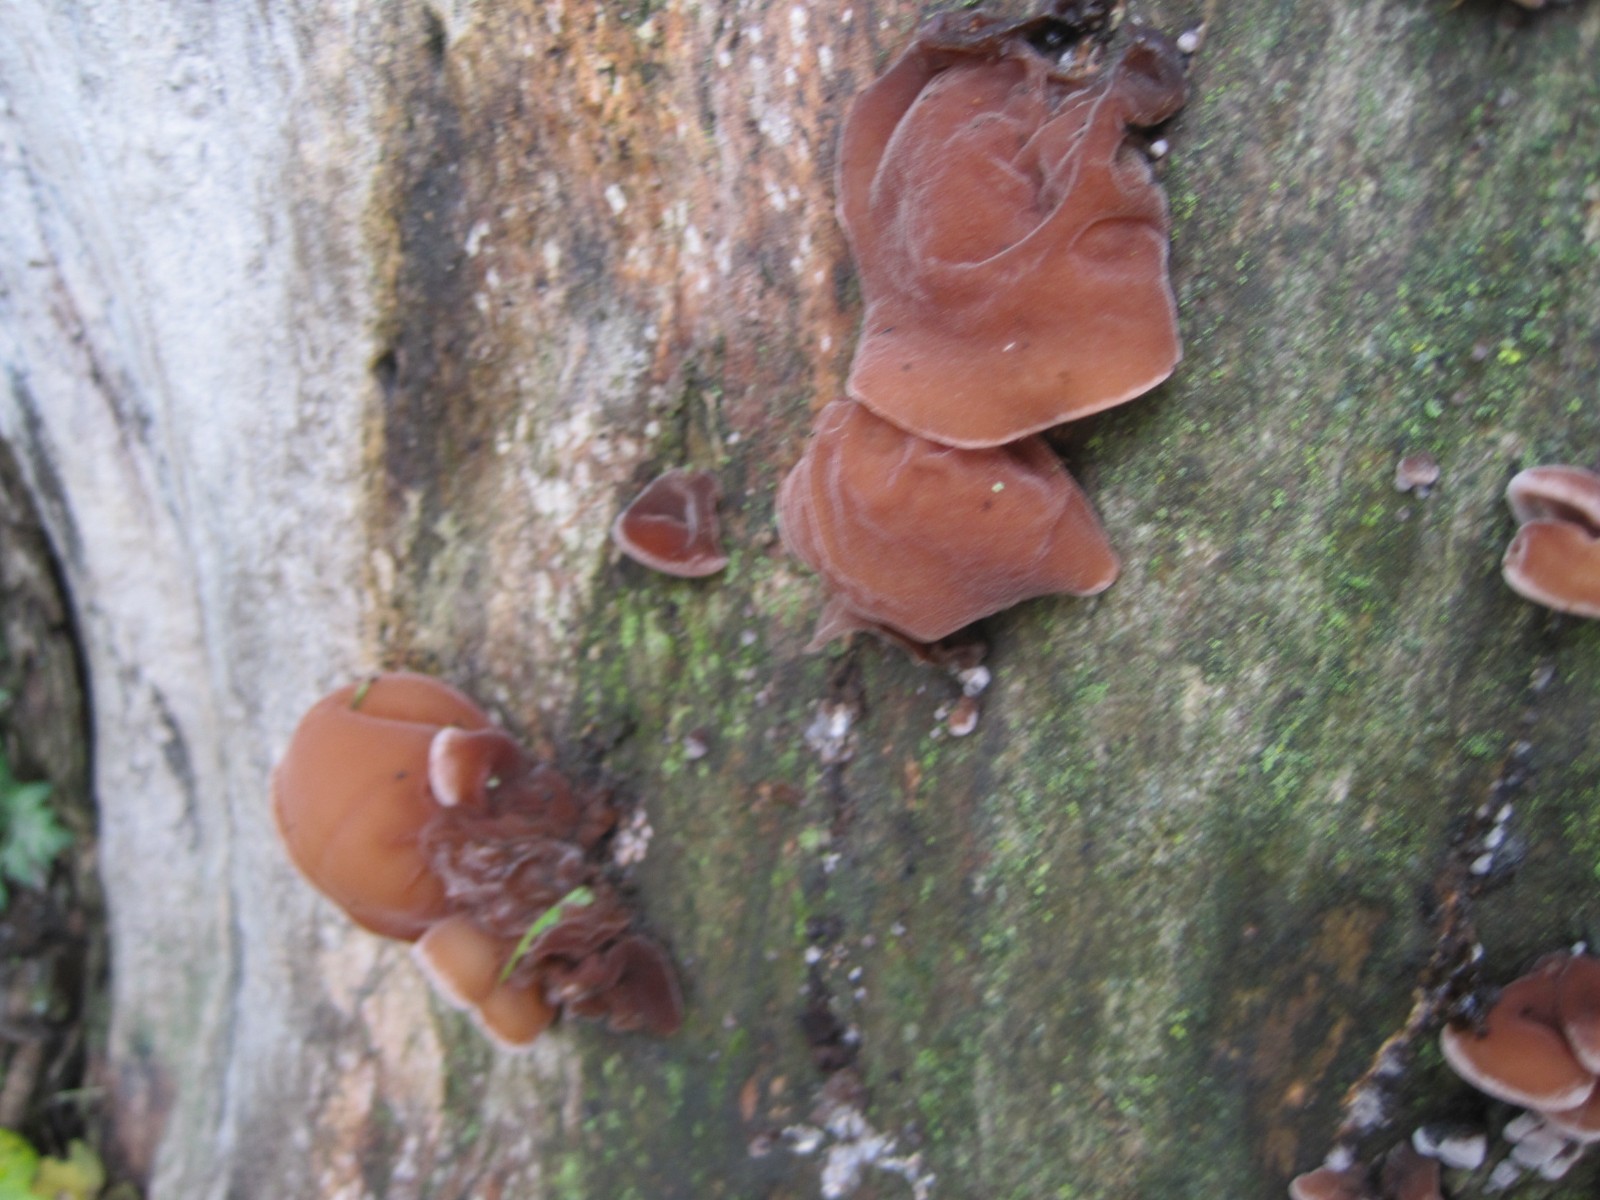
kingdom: Fungi
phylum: Basidiomycota
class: Agaricomycetes
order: Auriculariales
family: Auriculariaceae
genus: Auricularia
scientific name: Auricularia auricula-judae
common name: almindelig judasøre
